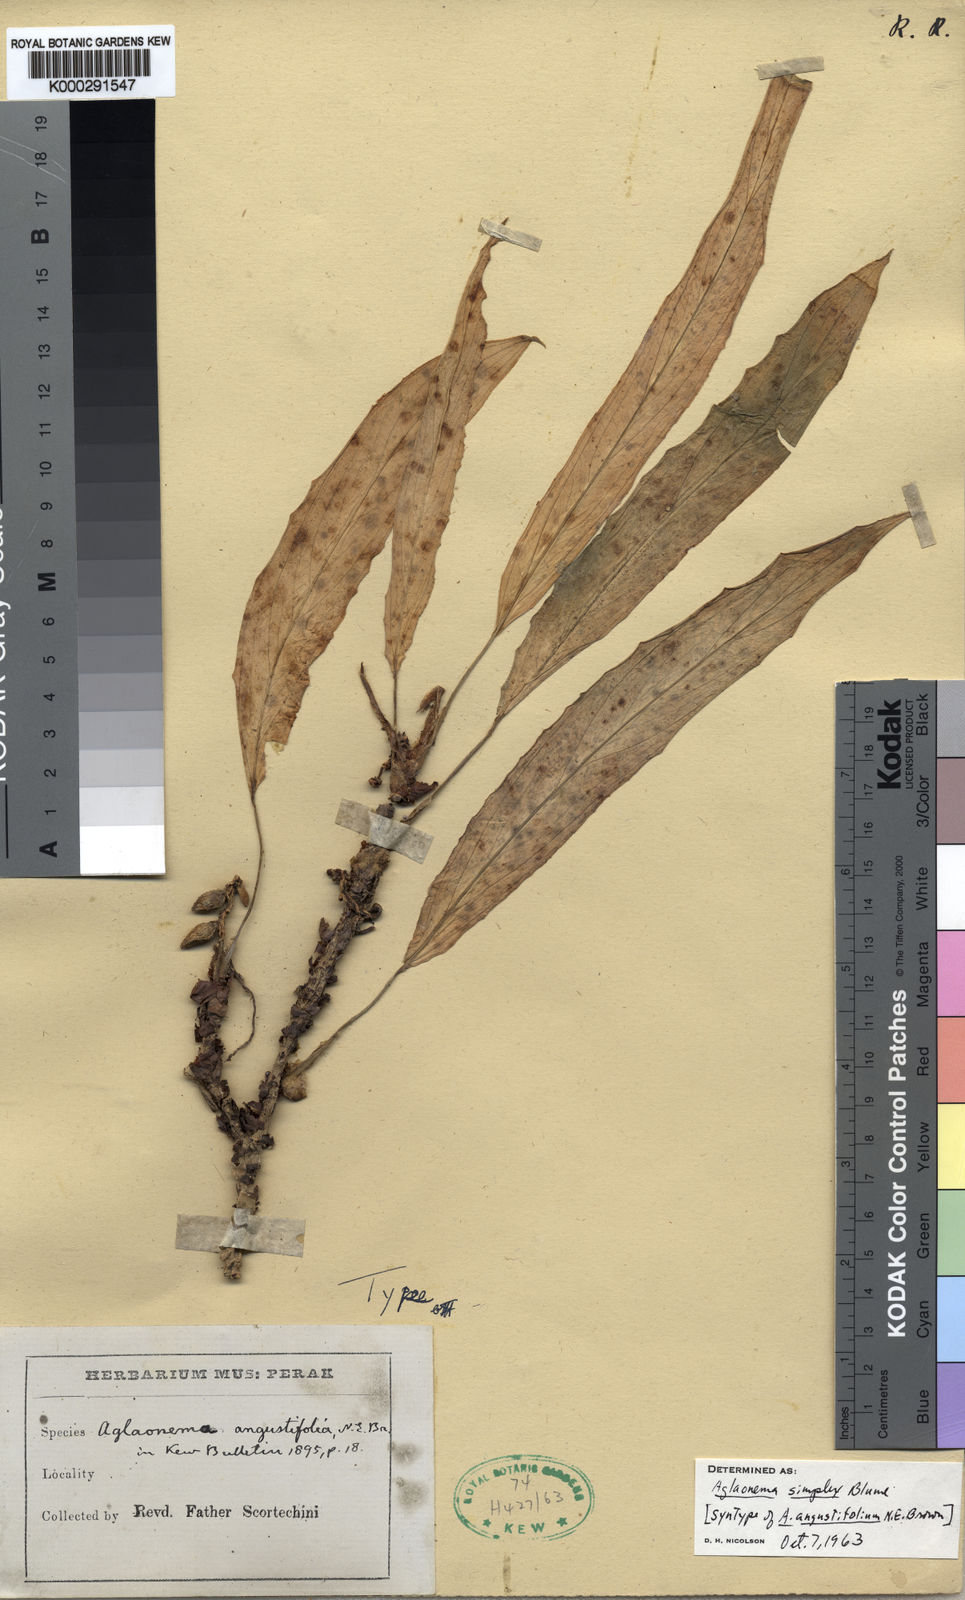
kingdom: Plantae
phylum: Tracheophyta
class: Liliopsida
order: Alismatales
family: Araceae
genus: Aglaonema
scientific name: Aglaonema simplex
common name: Malayan-sword
